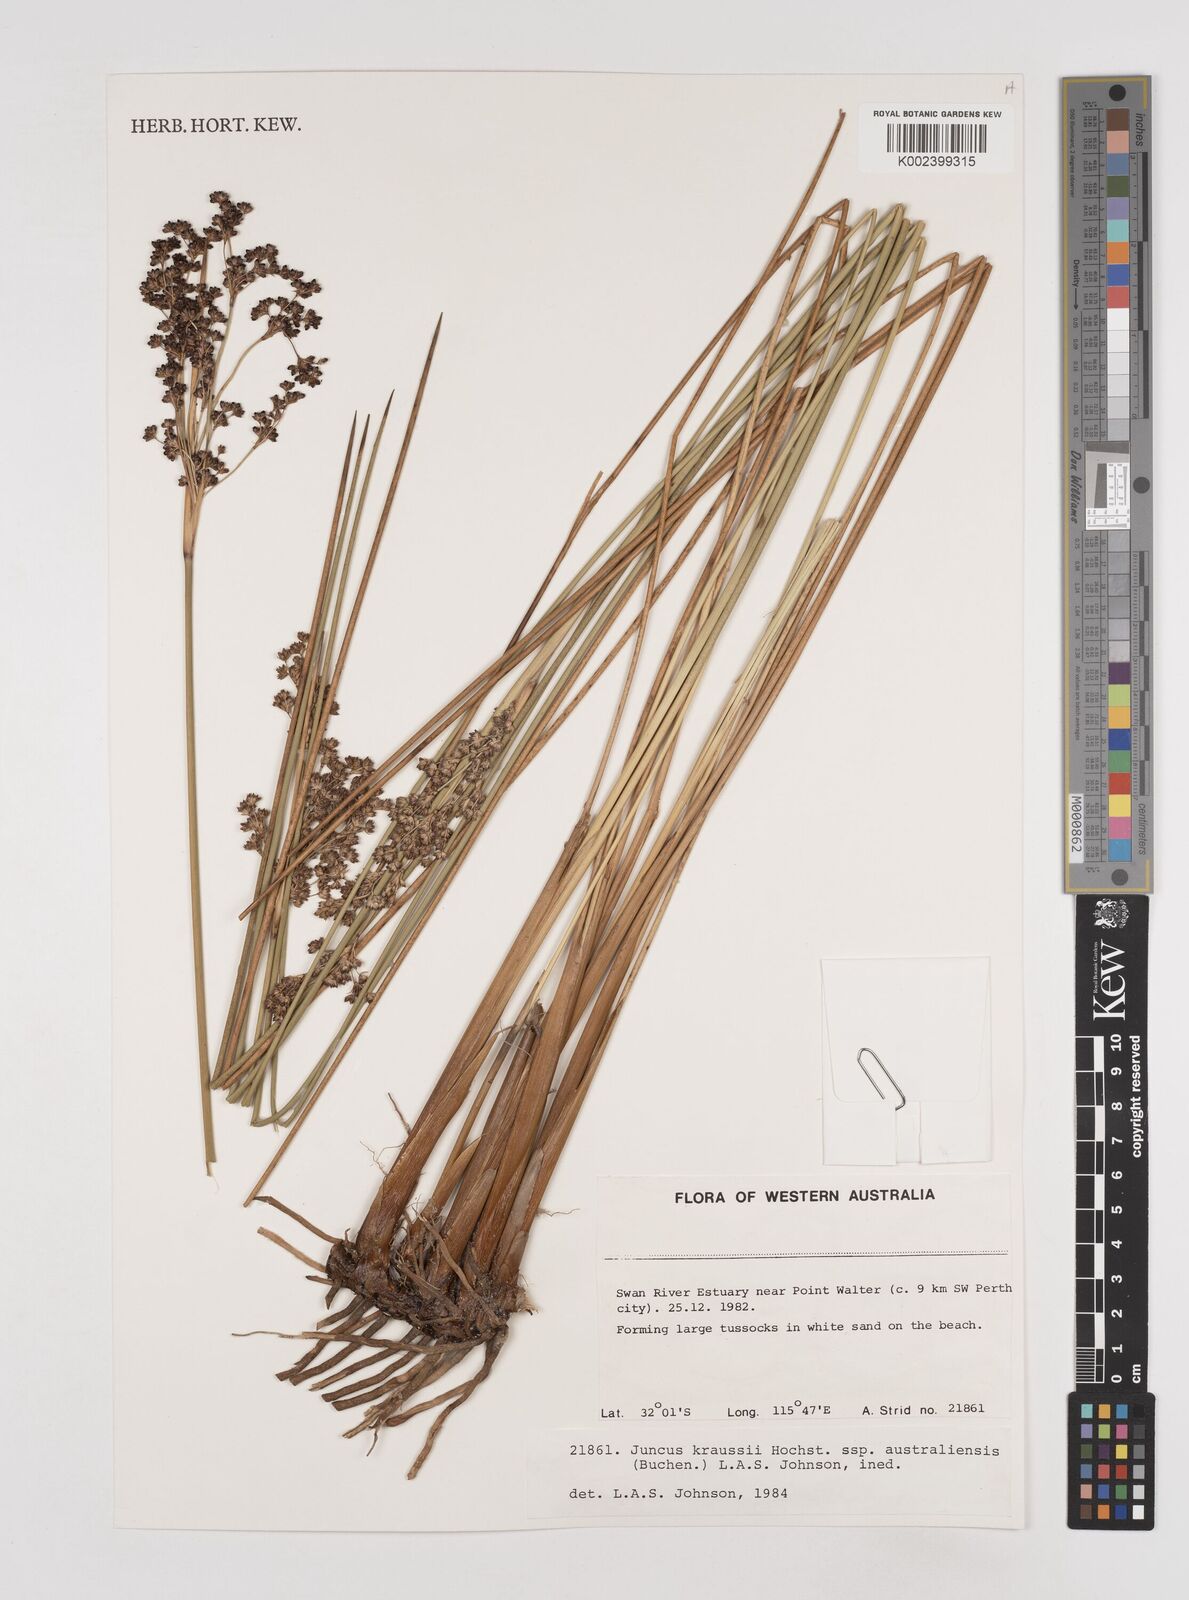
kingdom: Plantae
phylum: Tracheophyta
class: Liliopsida
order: Poales
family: Juncaceae
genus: Juncus
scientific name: Juncus kraussii
